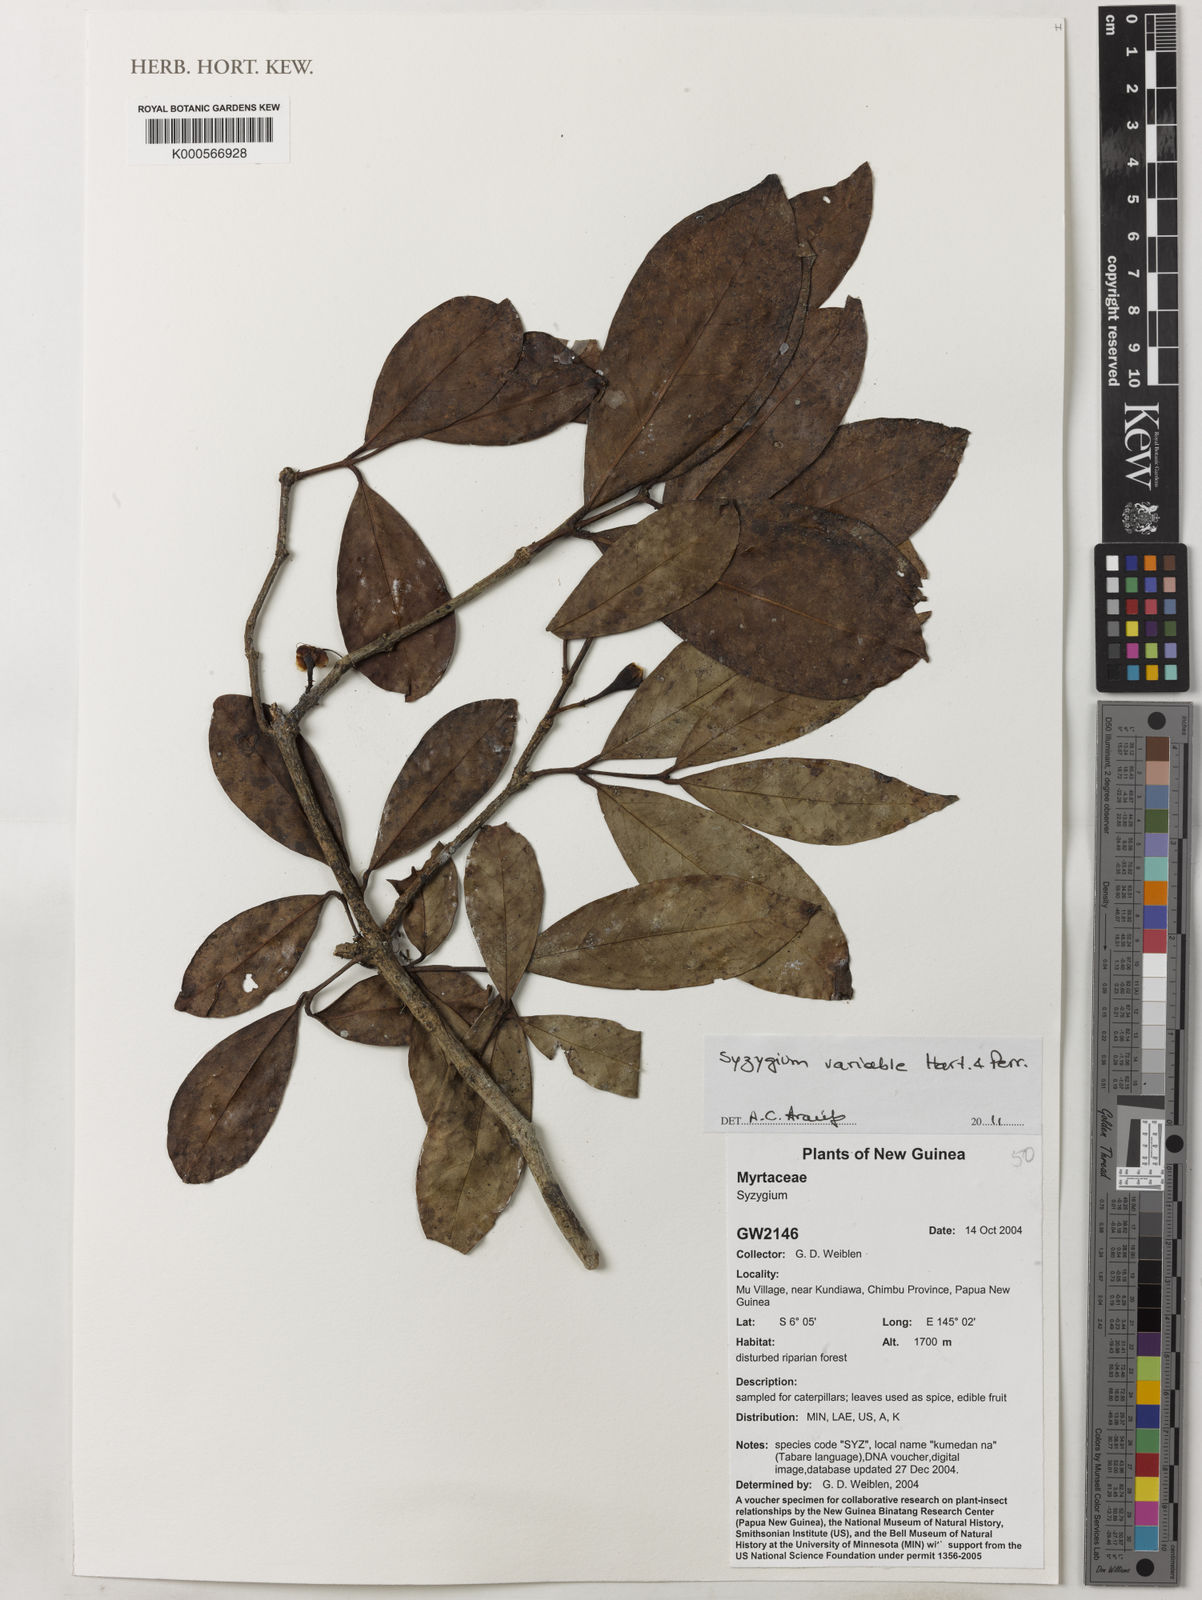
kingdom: Plantae
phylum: Tracheophyta
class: Magnoliopsida
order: Myrtales
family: Myrtaceae
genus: Syzygium
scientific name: Syzygium
